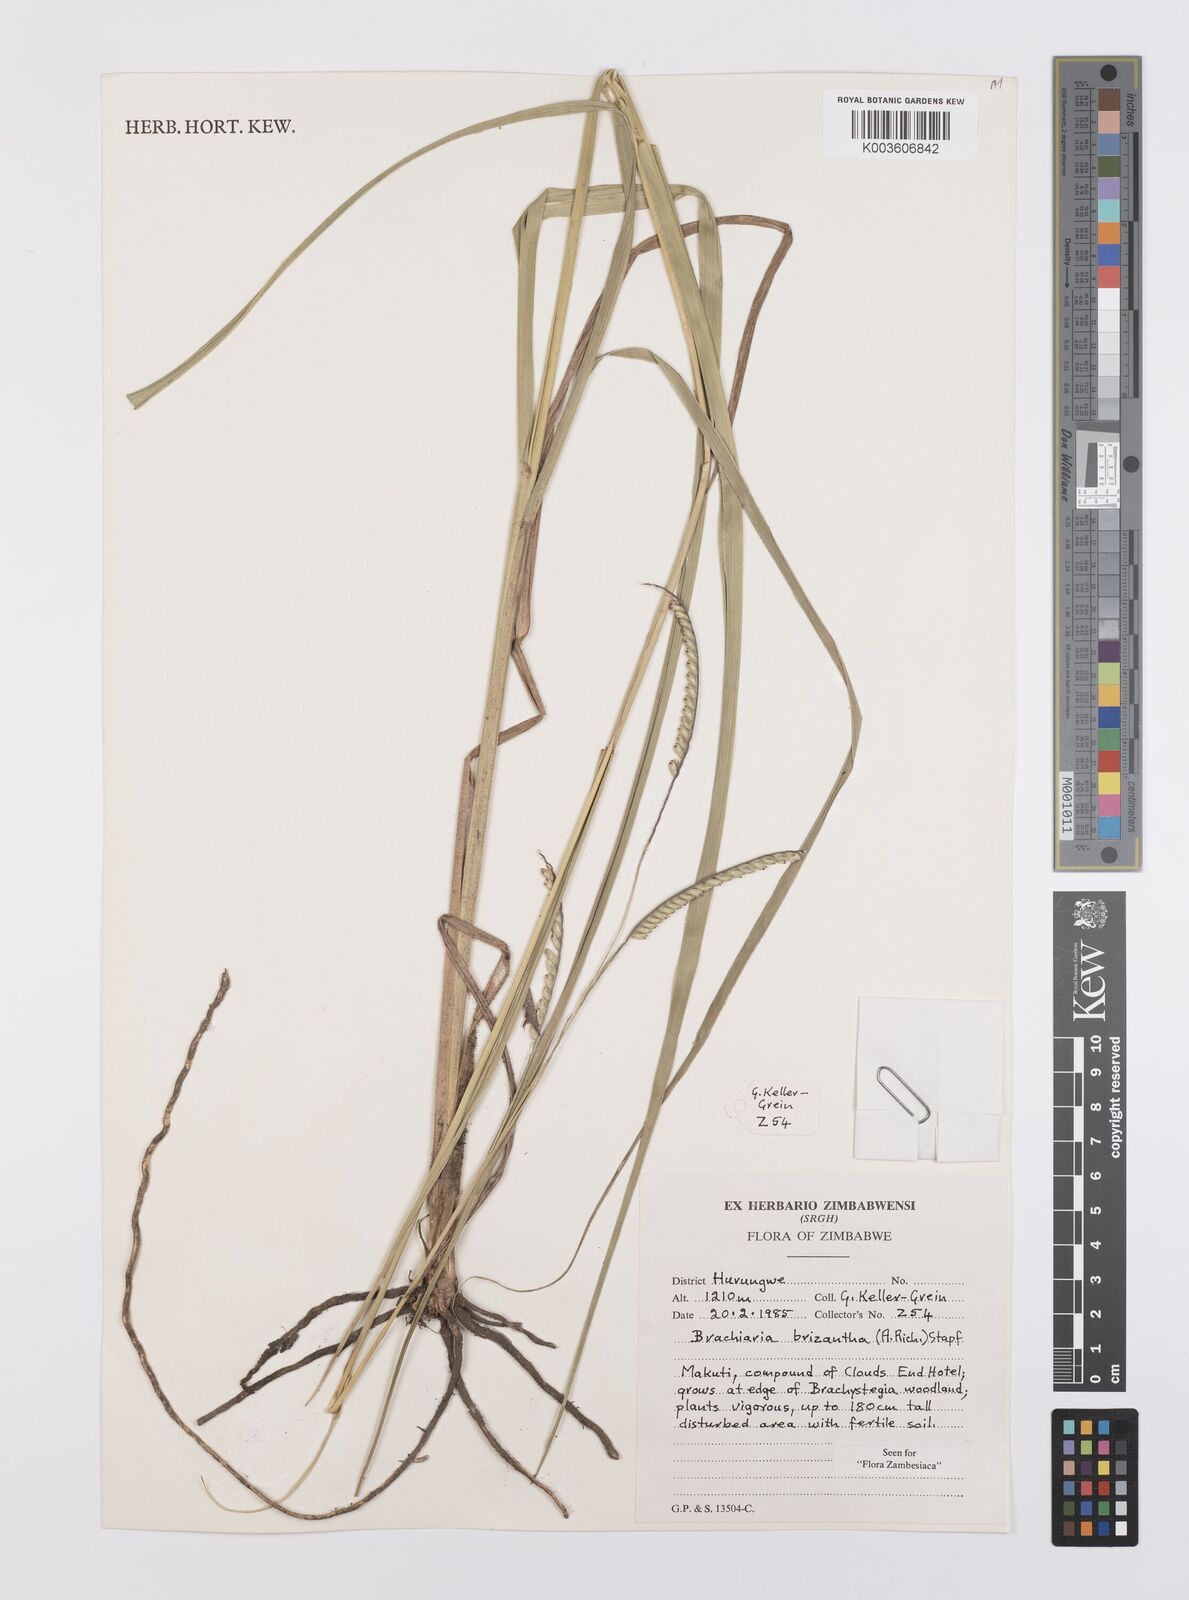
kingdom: Plantae
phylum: Tracheophyta
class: Liliopsida
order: Poales
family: Poaceae
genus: Urochloa
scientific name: Urochloa brizantha
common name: Palisade signalgrass
